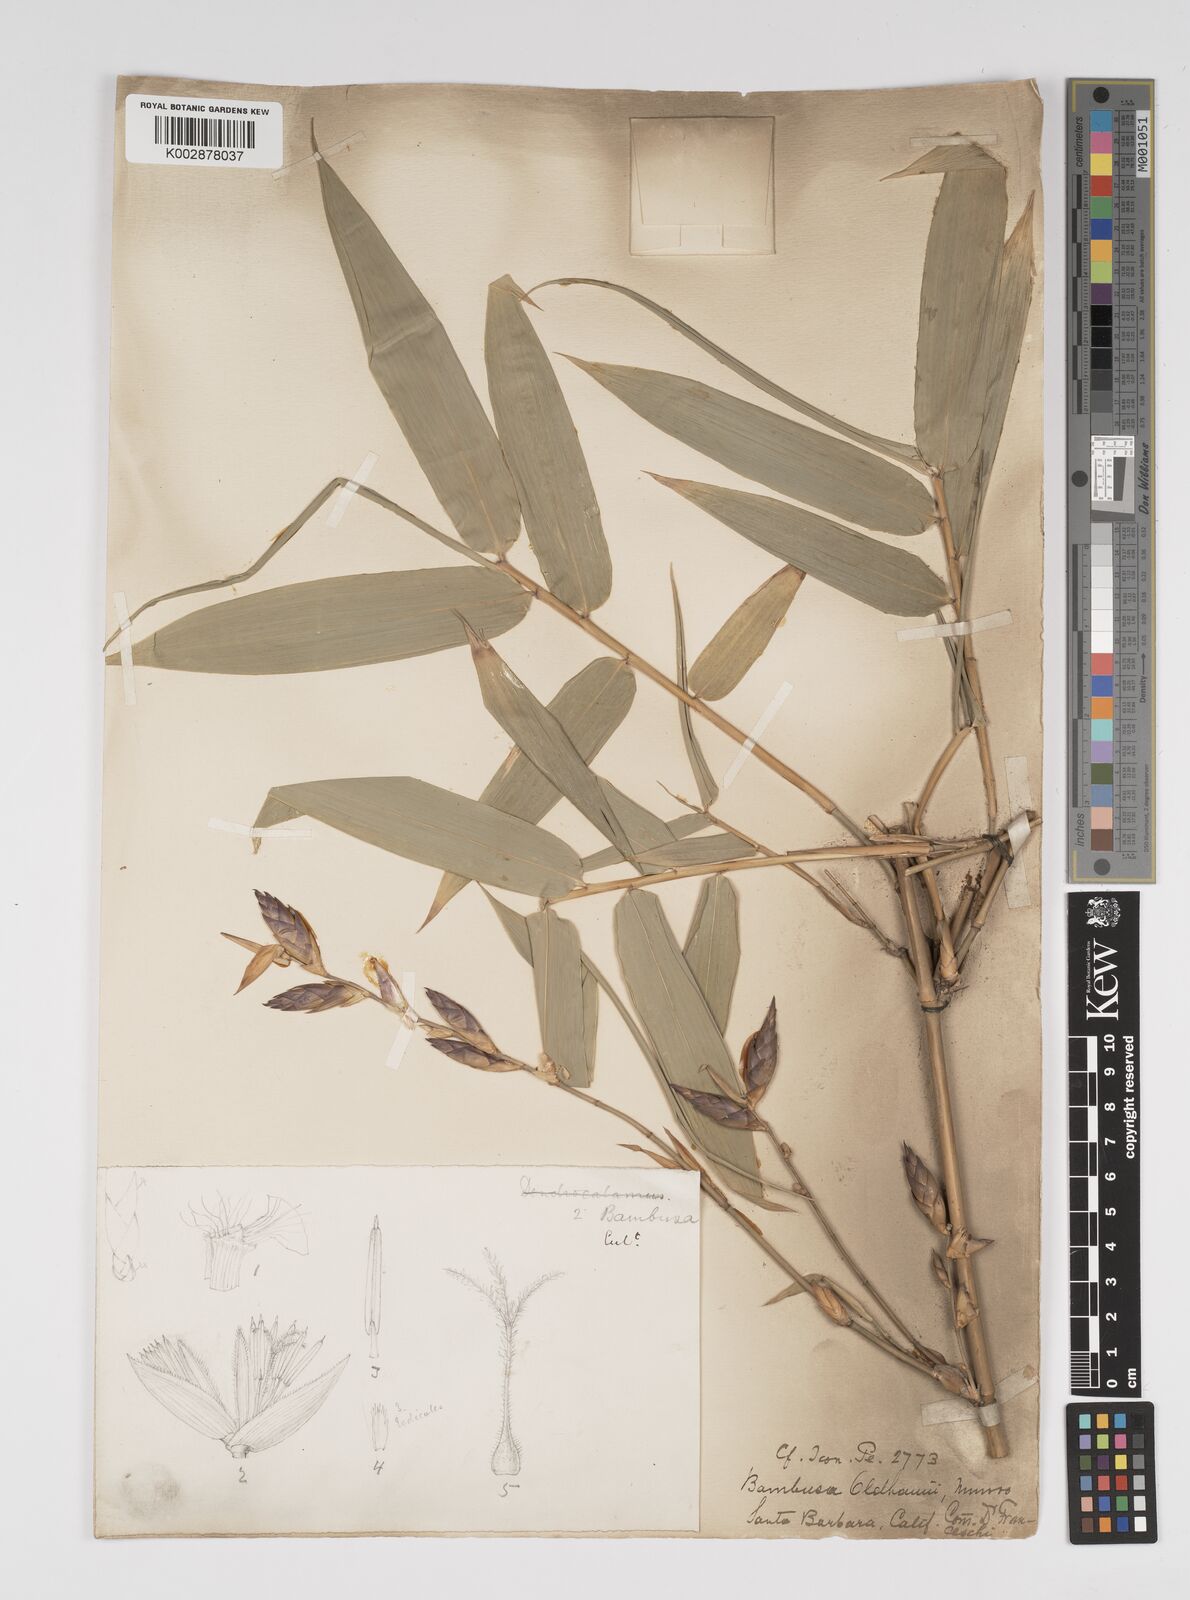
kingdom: Plantae
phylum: Tracheophyta
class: Liliopsida
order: Poales
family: Poaceae
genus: Bambusa
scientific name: Bambusa oldhamii
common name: Giant timber bamboo
